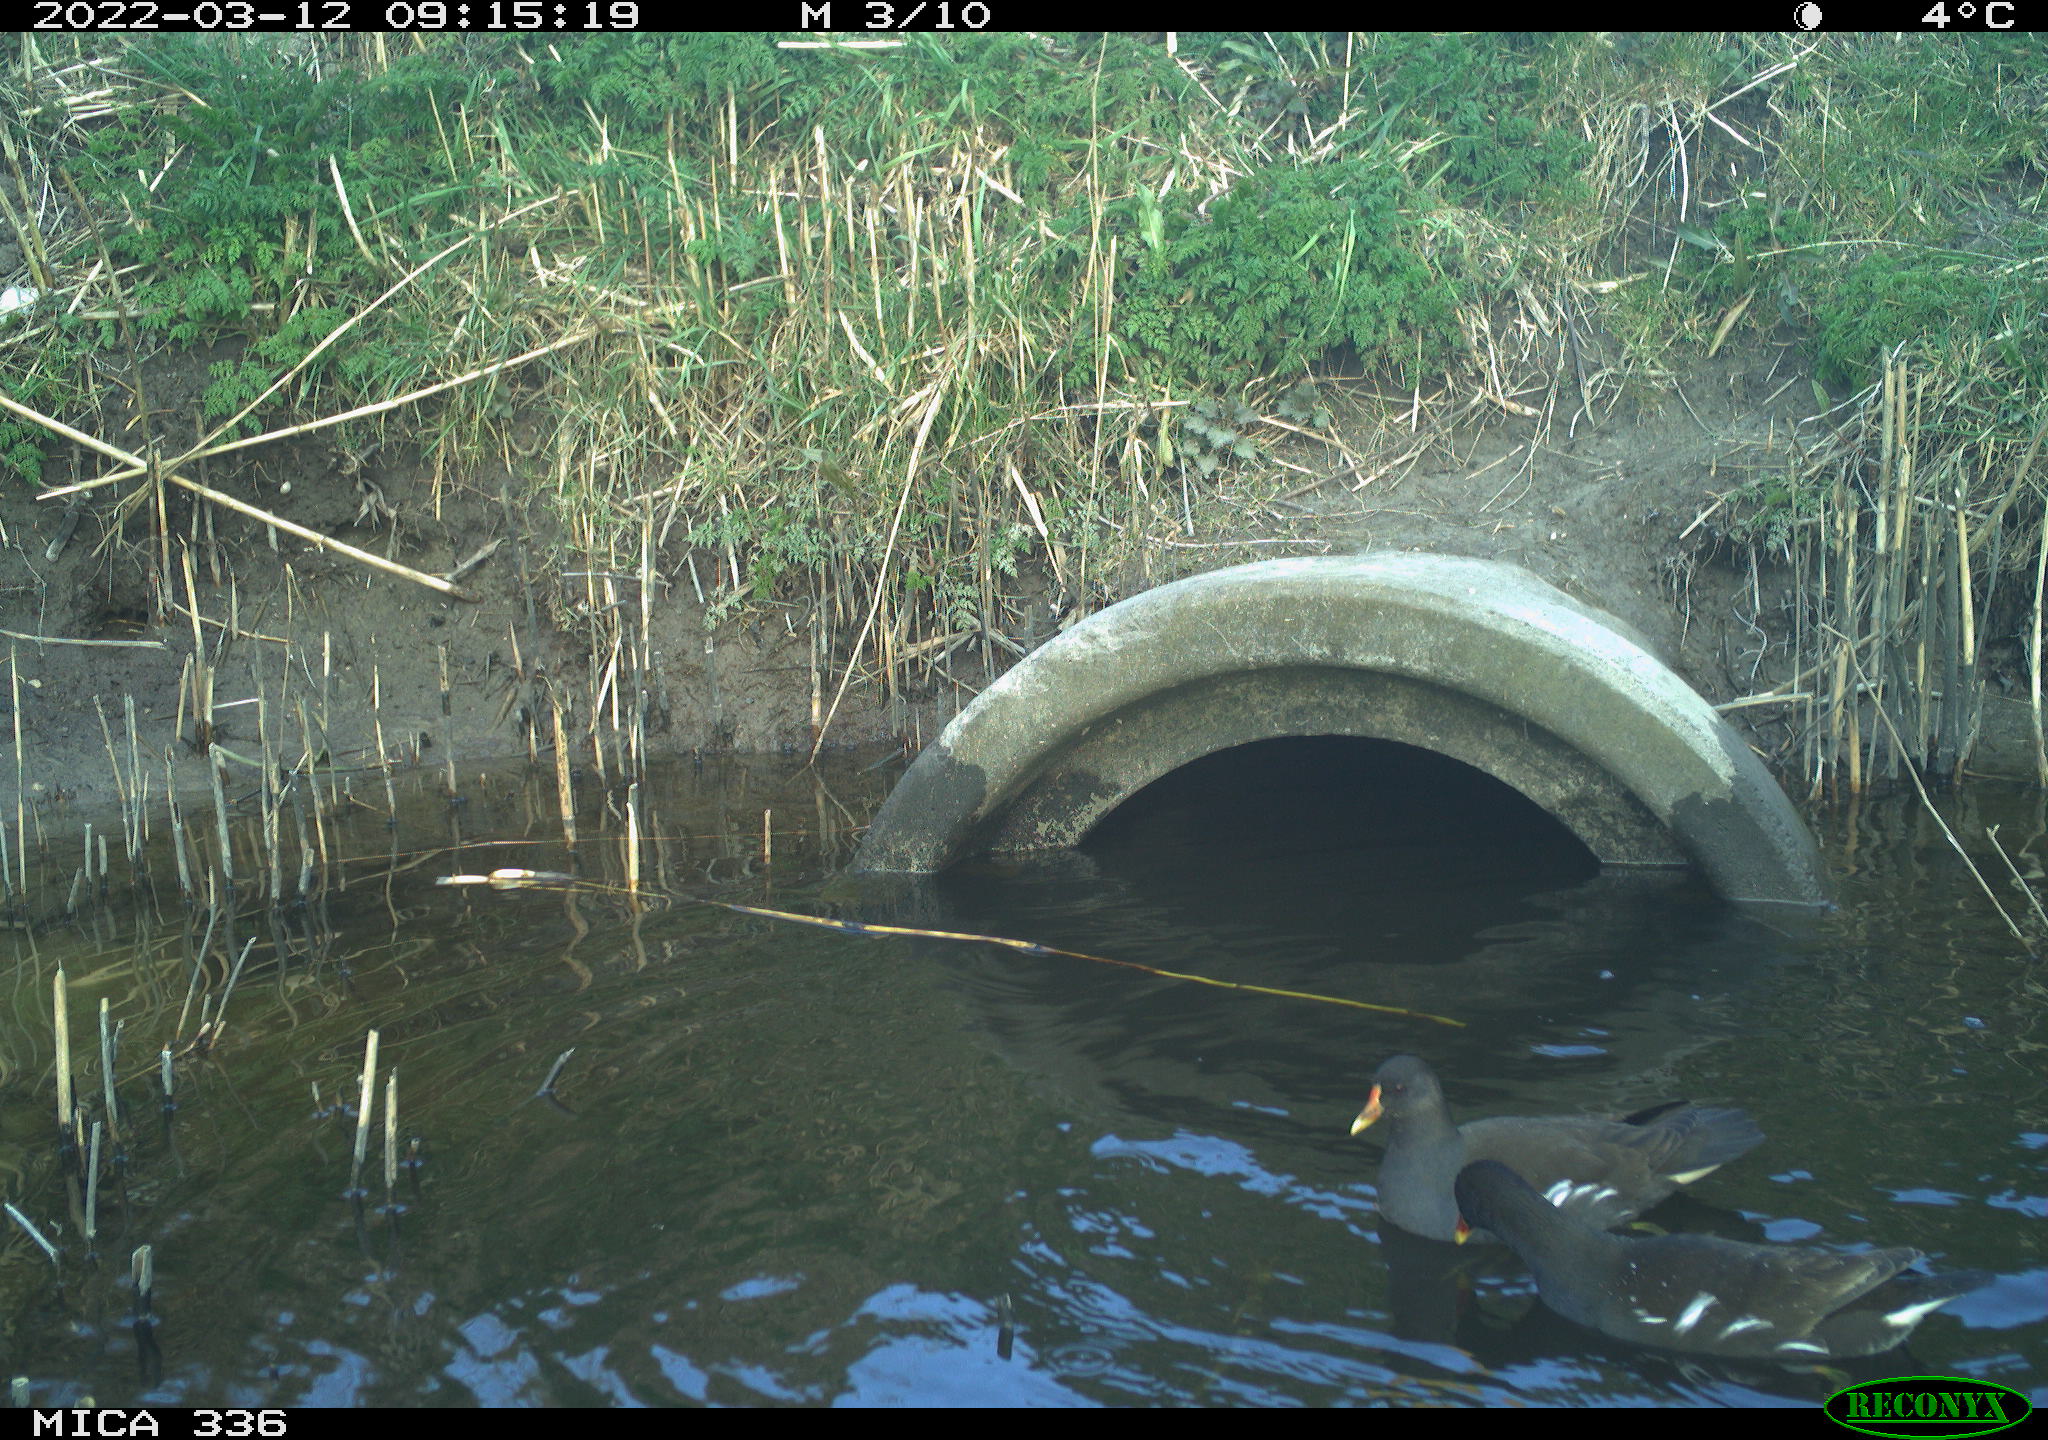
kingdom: Animalia
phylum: Chordata
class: Aves
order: Gruiformes
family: Rallidae
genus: Gallinula
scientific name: Gallinula chloropus
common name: Common moorhen
